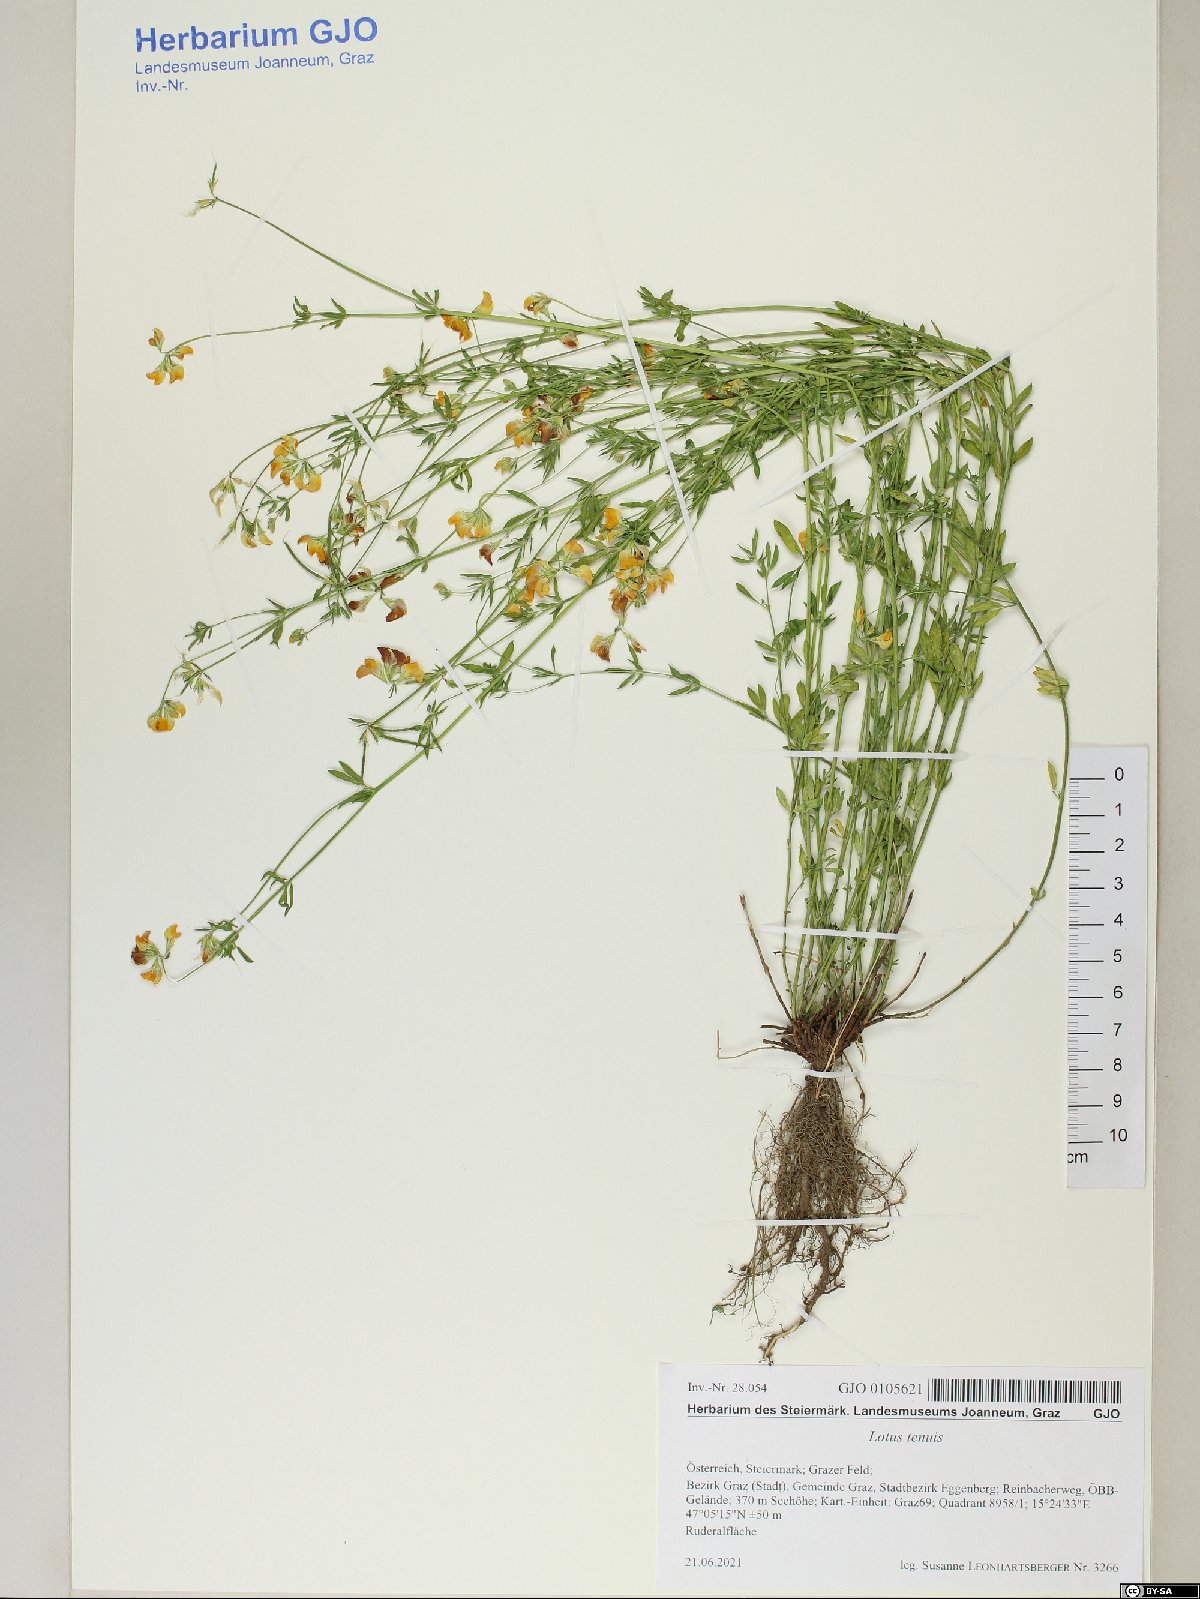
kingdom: Plantae
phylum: Tracheophyta
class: Magnoliopsida
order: Fabales
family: Fabaceae
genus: Lotus
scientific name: Lotus tenuis
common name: Narrow-leaved bird's-foot-trefoil
